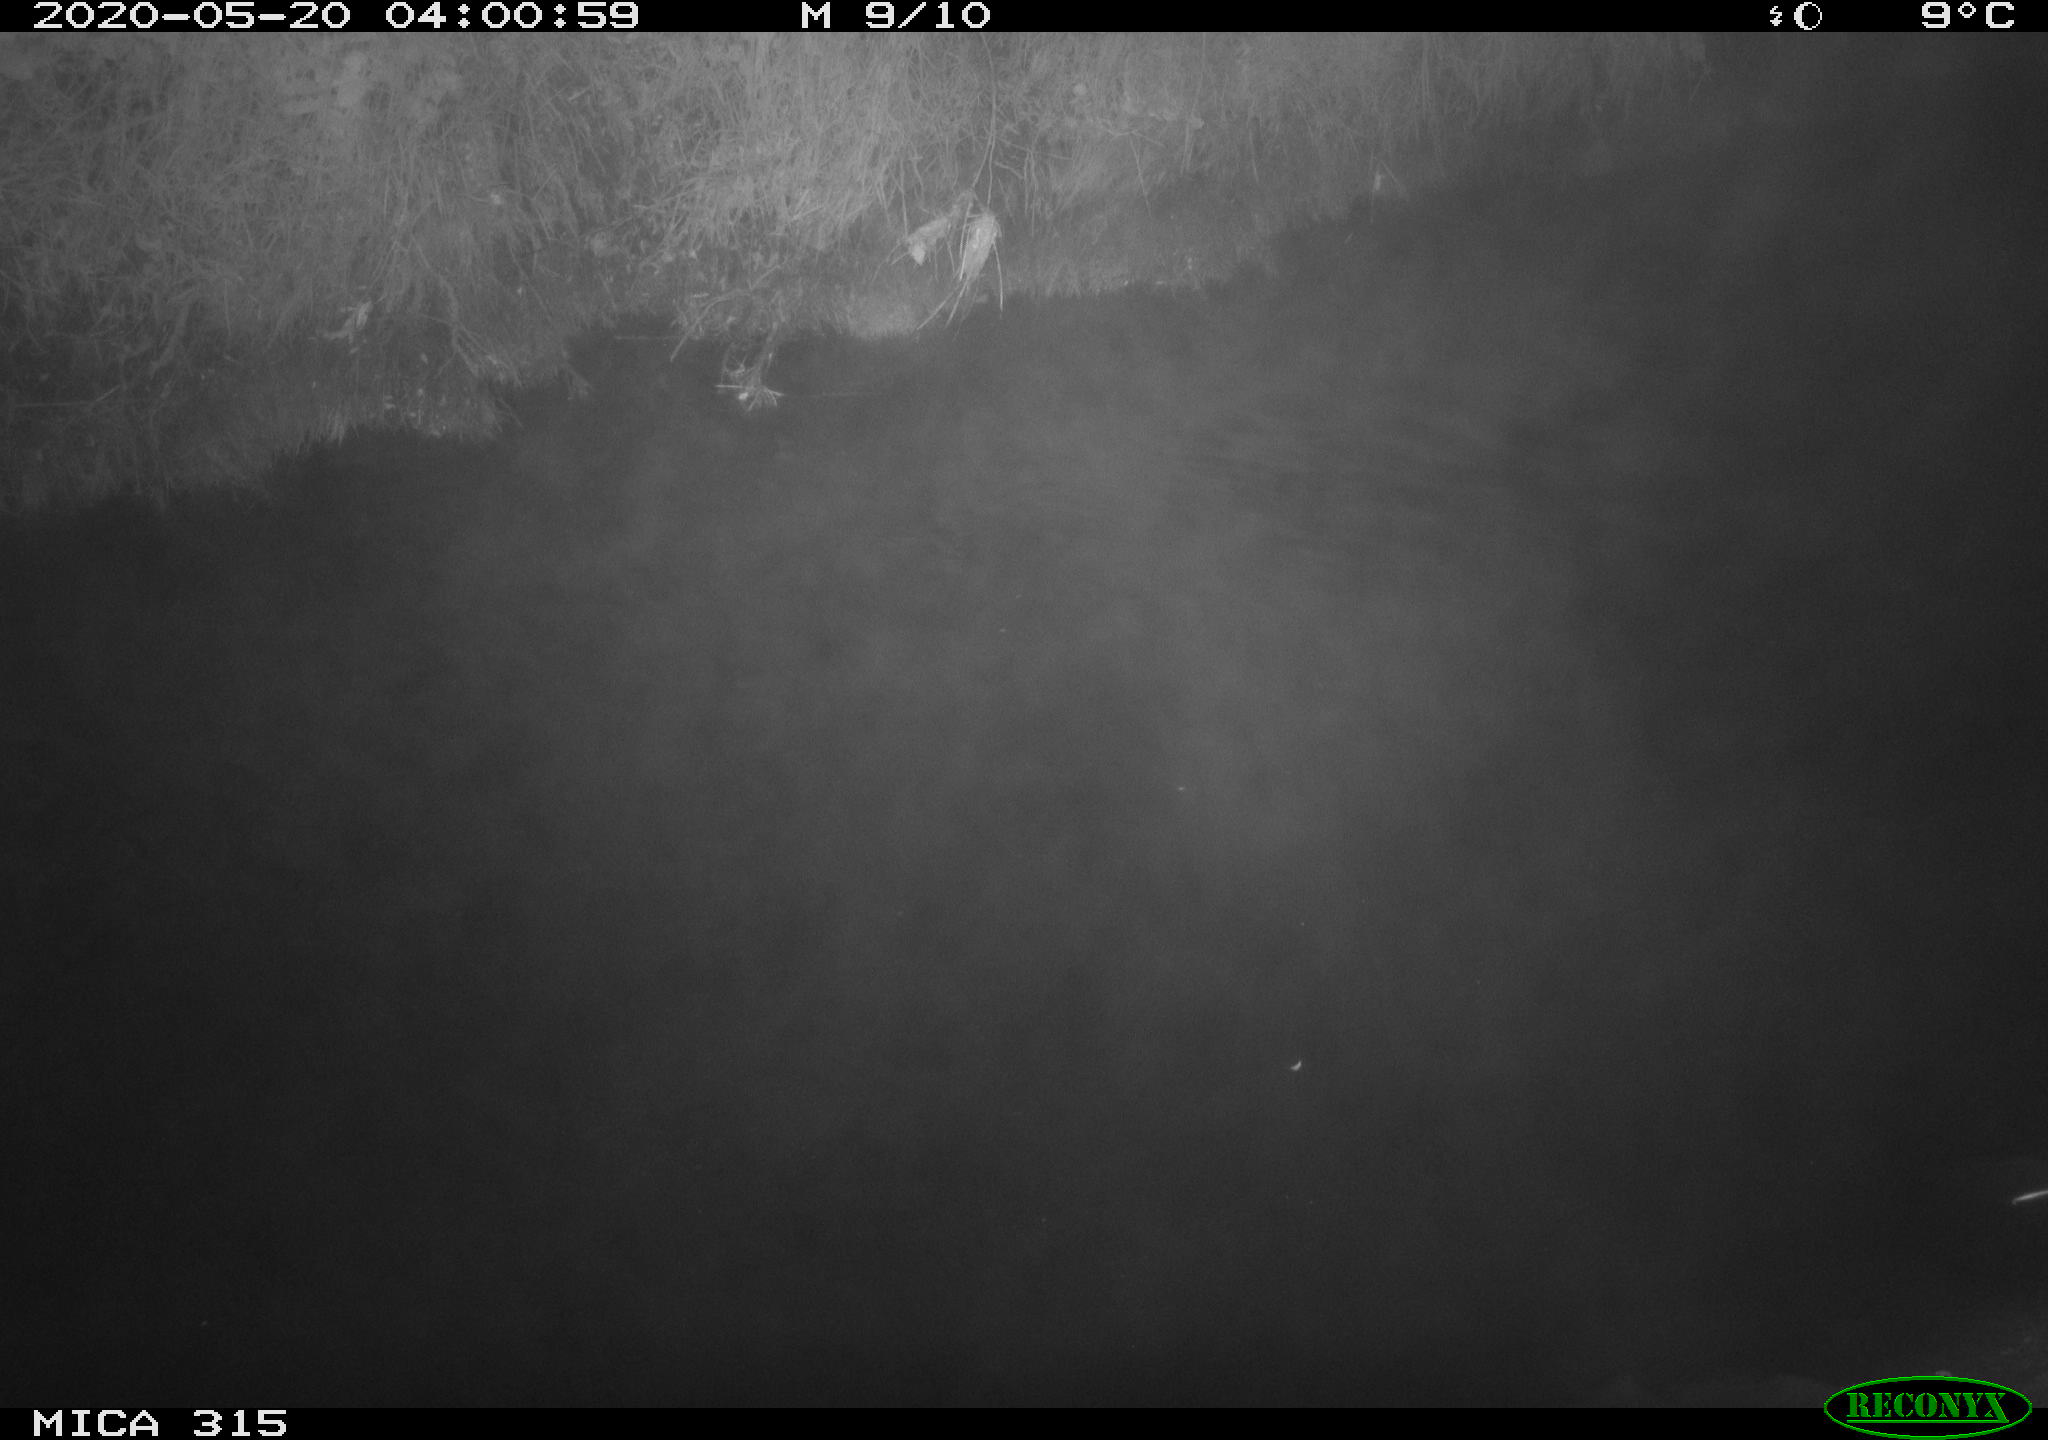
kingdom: Animalia
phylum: Chordata
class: Aves
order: Anseriformes
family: Anatidae
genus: Anas
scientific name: Anas platyrhynchos
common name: Mallard
